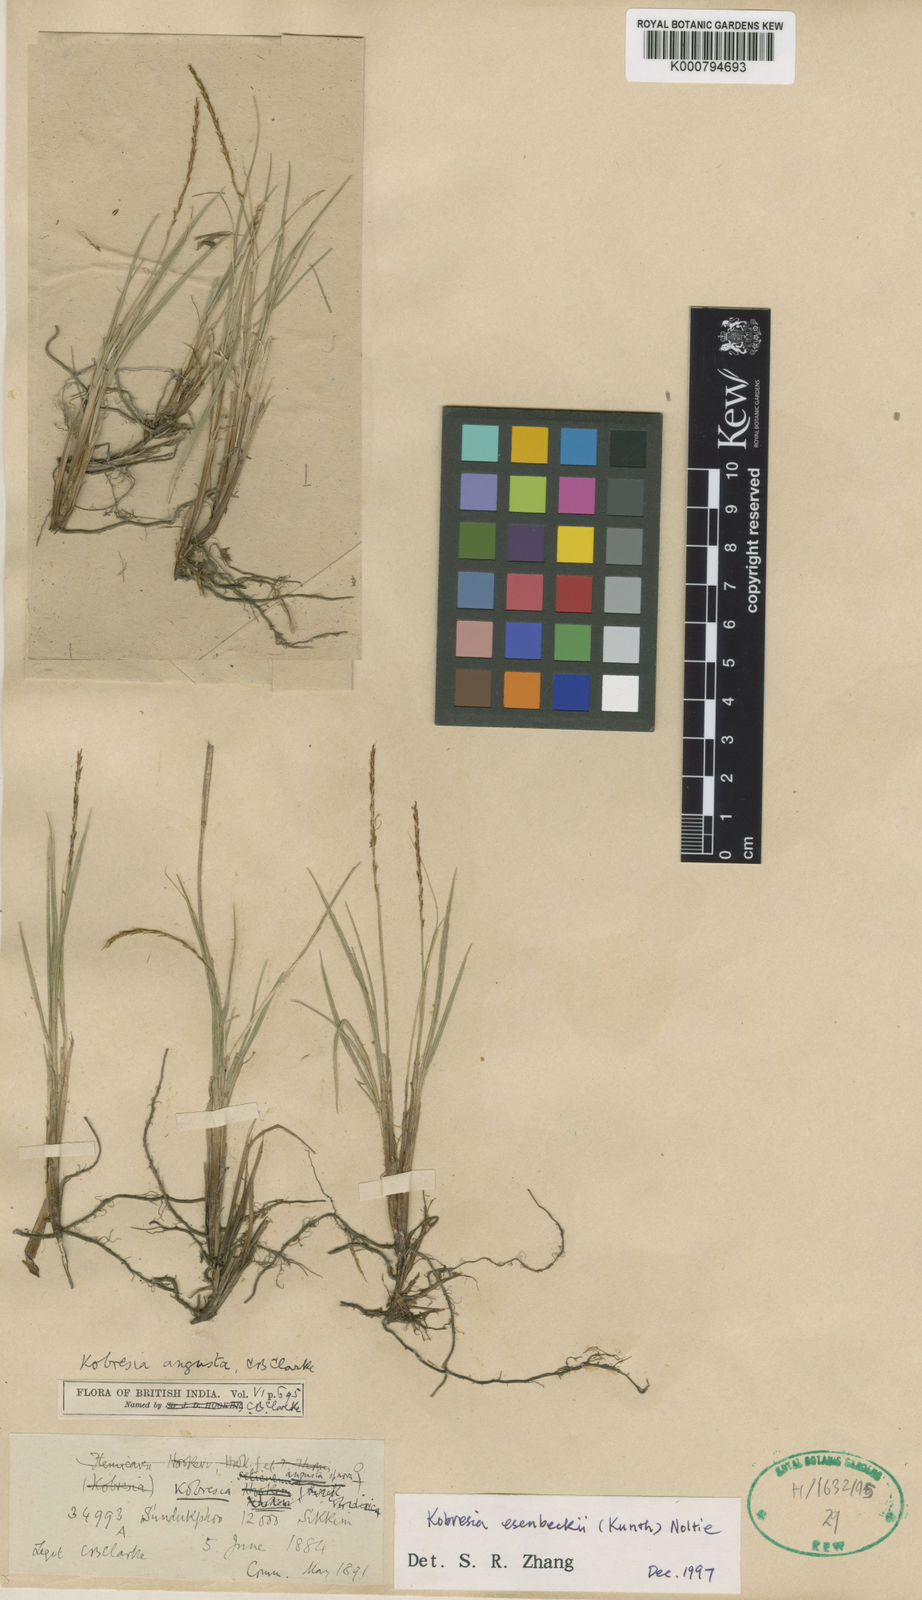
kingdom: Plantae
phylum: Tracheophyta
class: Liliopsida
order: Poales
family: Cyperaceae
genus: Carex
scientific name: Carex esenbeckii
